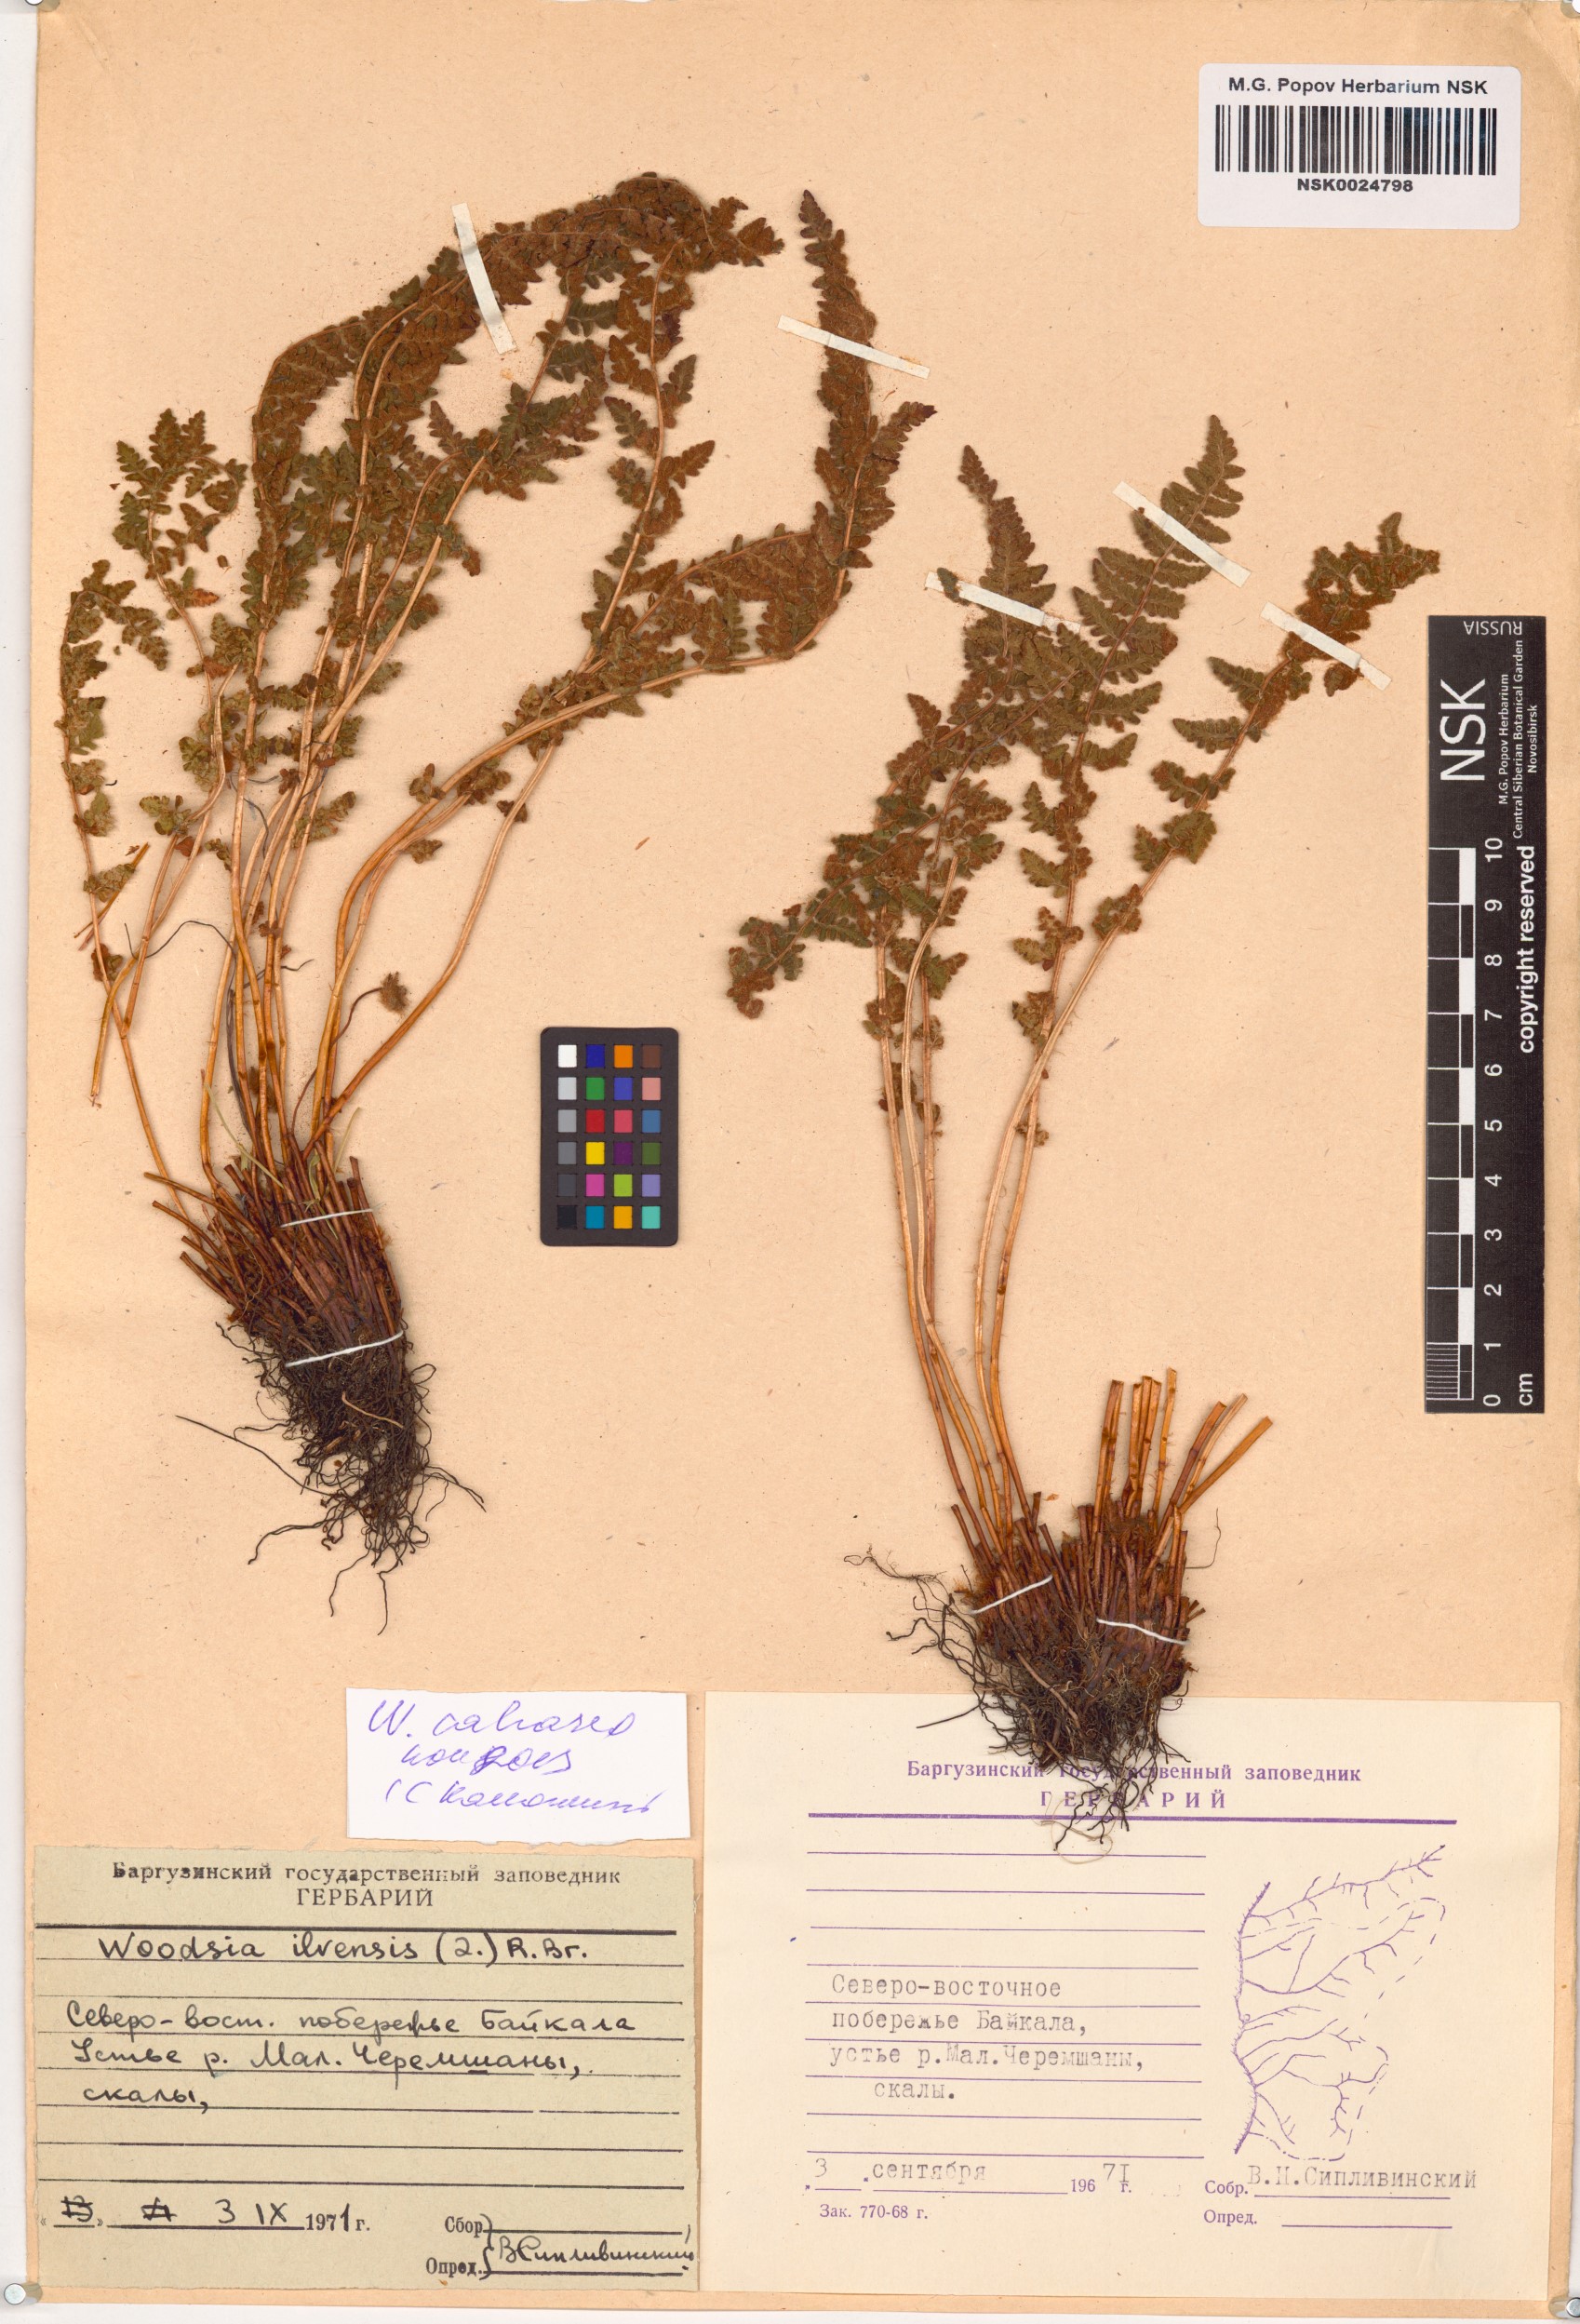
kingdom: Plantae
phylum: Tracheophyta
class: Polypodiopsida
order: Polypodiales
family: Woodsiaceae
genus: Woodsia
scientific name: Woodsia calcarea
